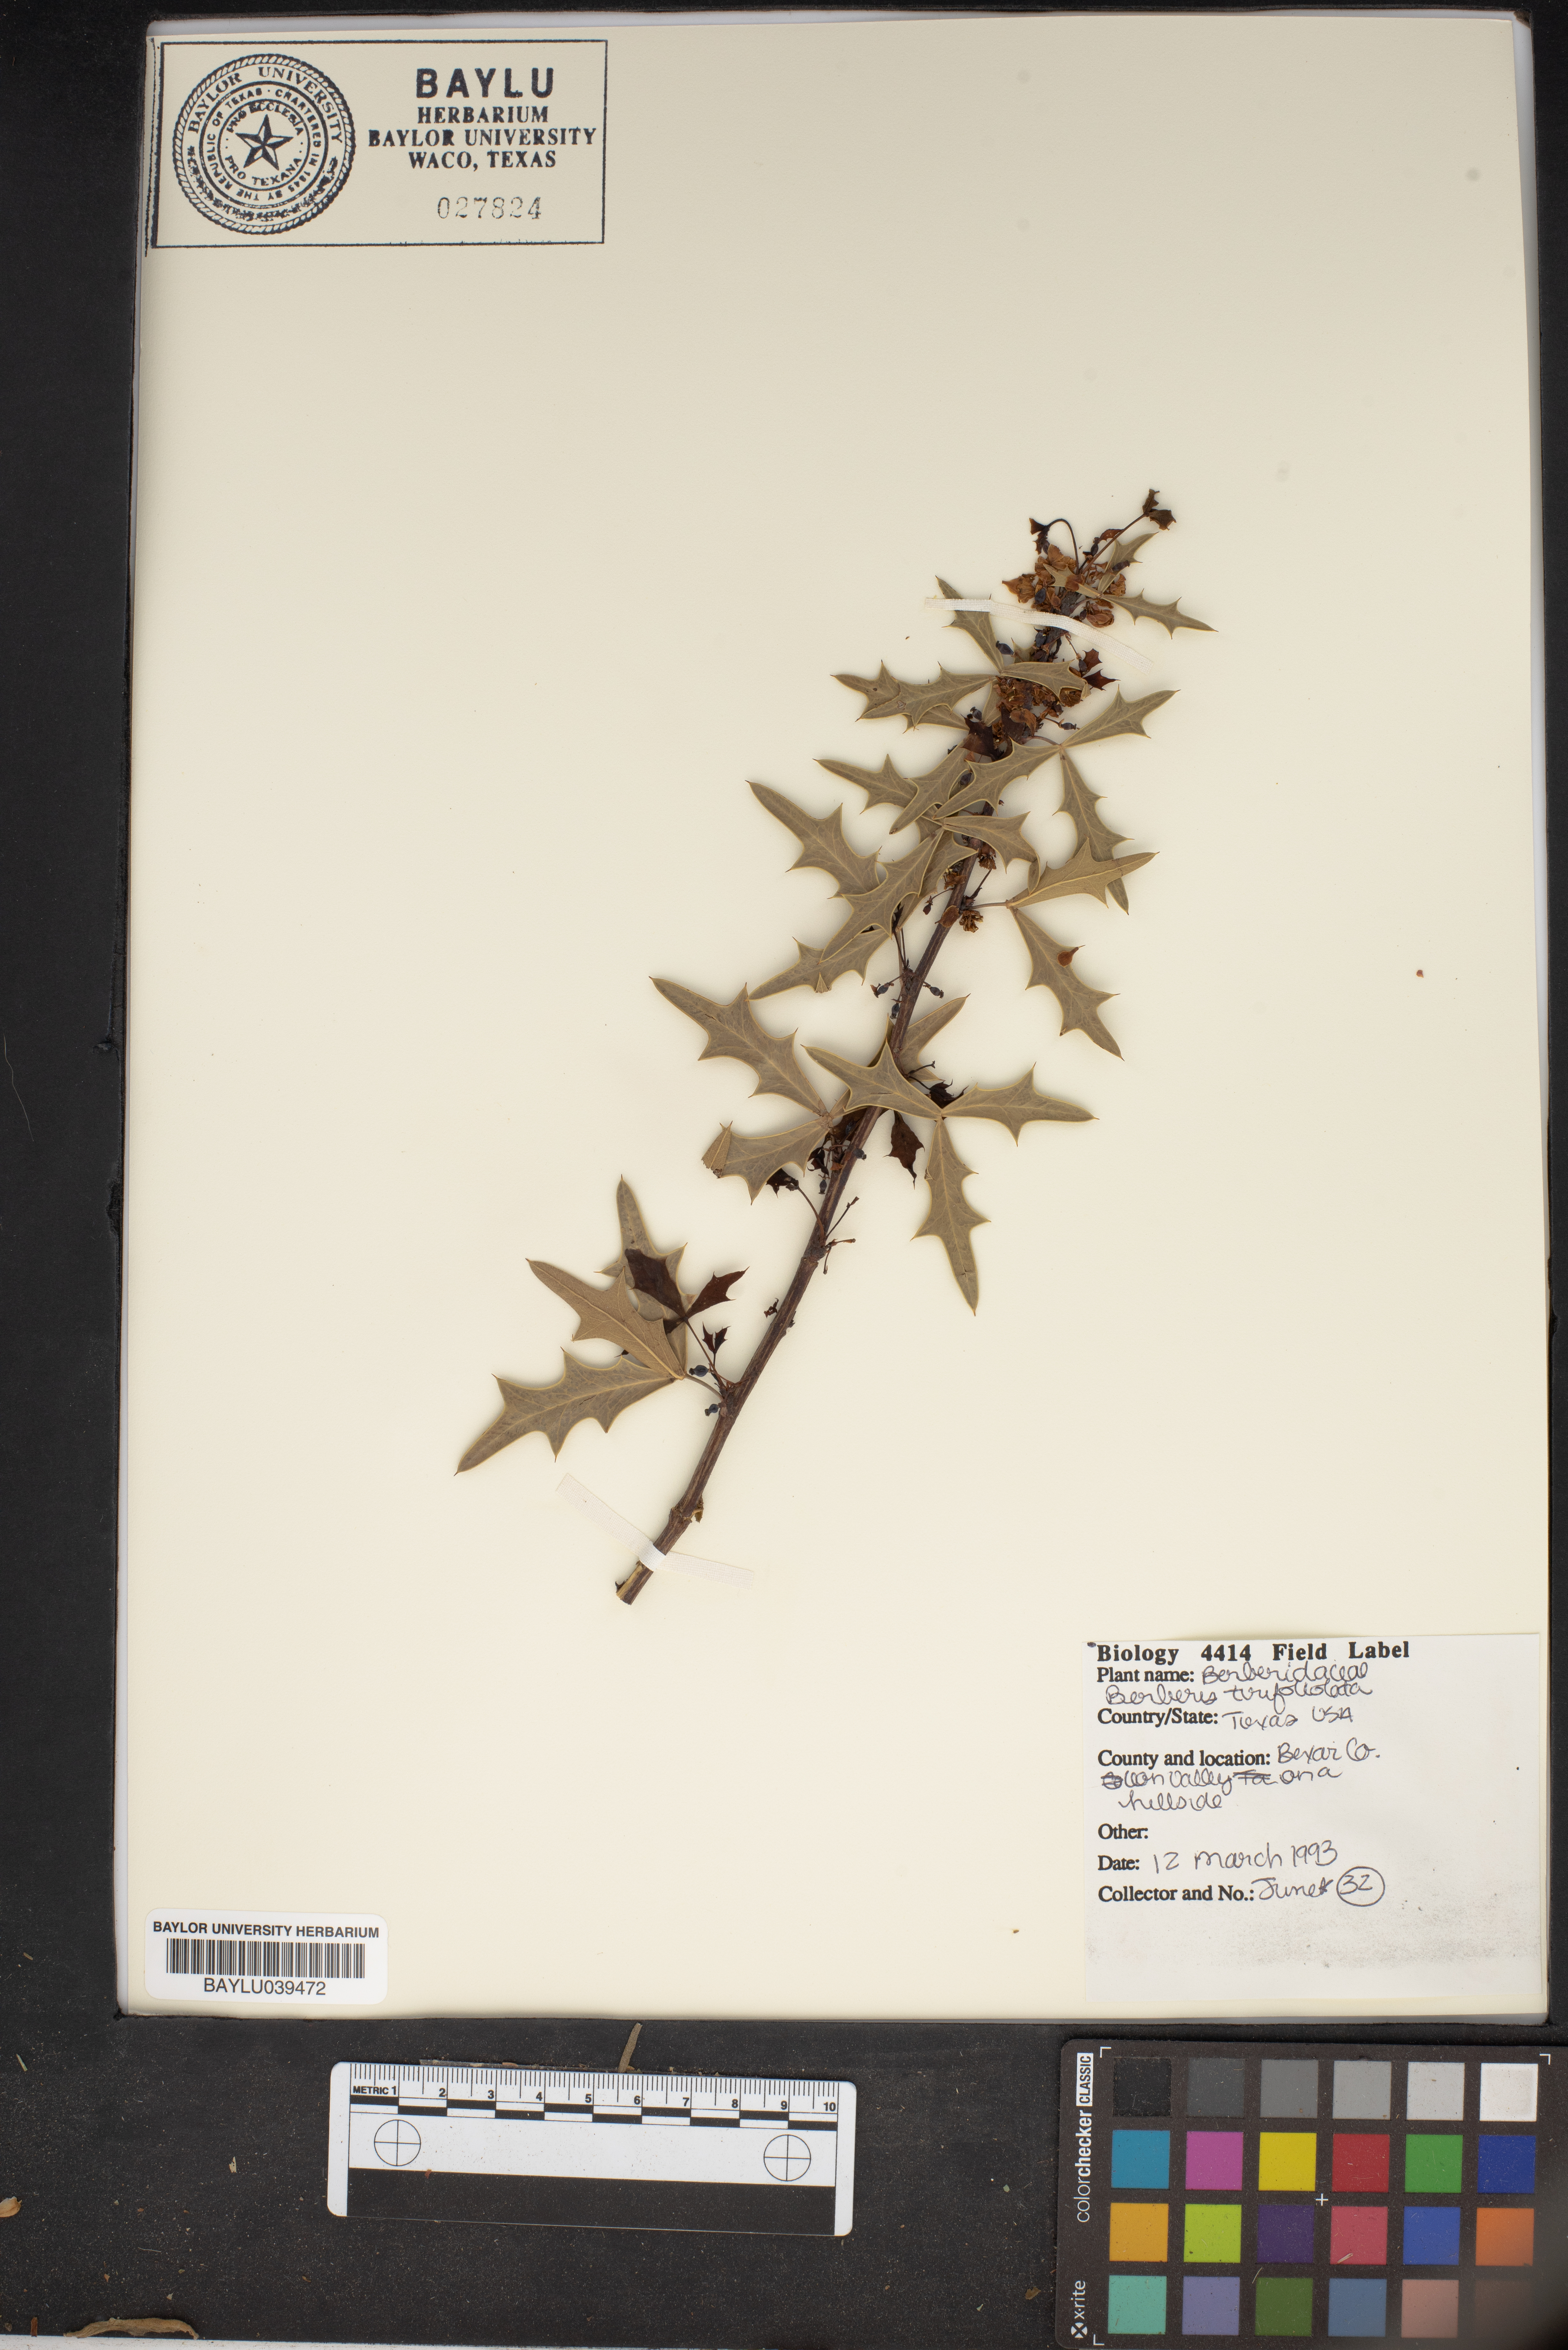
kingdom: Plantae
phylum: Tracheophyta
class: Magnoliopsida
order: Ranunculales
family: Berberidaceae
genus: Alloberberis
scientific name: Alloberberis fremontii
